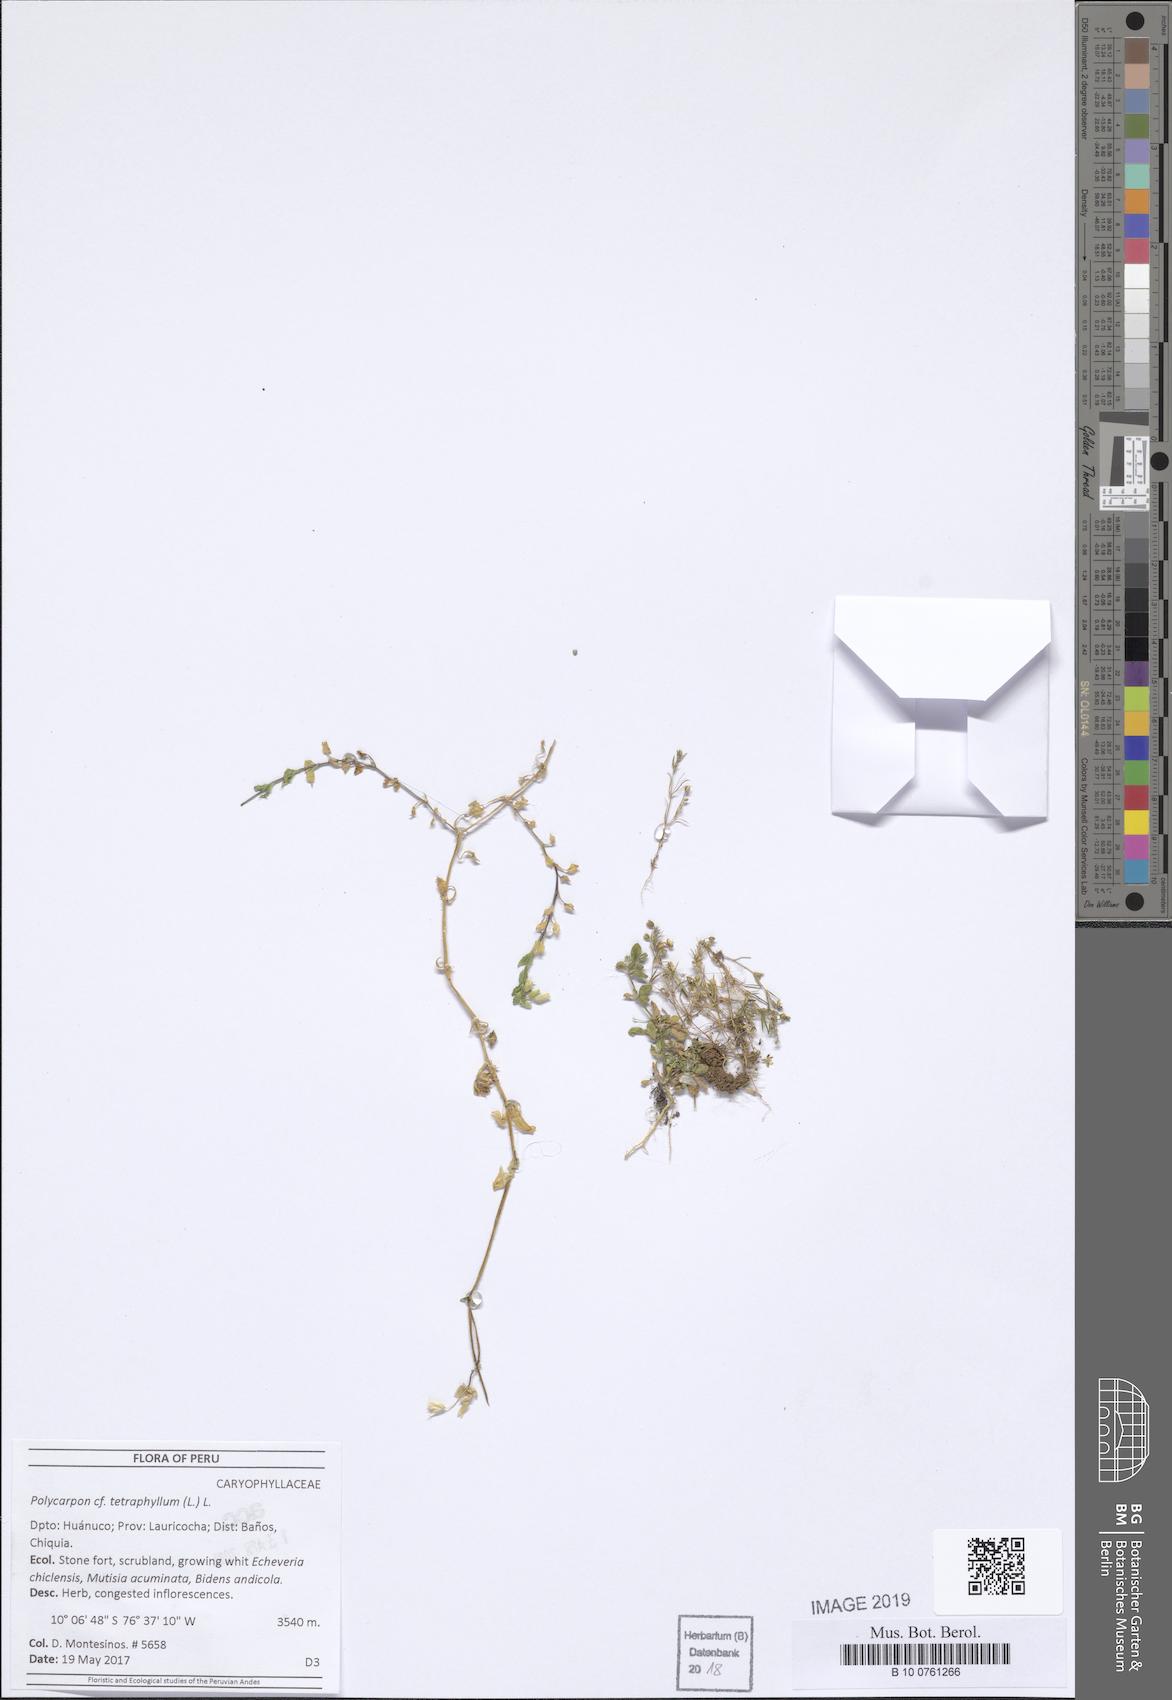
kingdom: Plantae
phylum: Tracheophyta
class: Magnoliopsida
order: Caryophyllales
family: Caryophyllaceae
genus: Arenaria
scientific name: Arenaria
